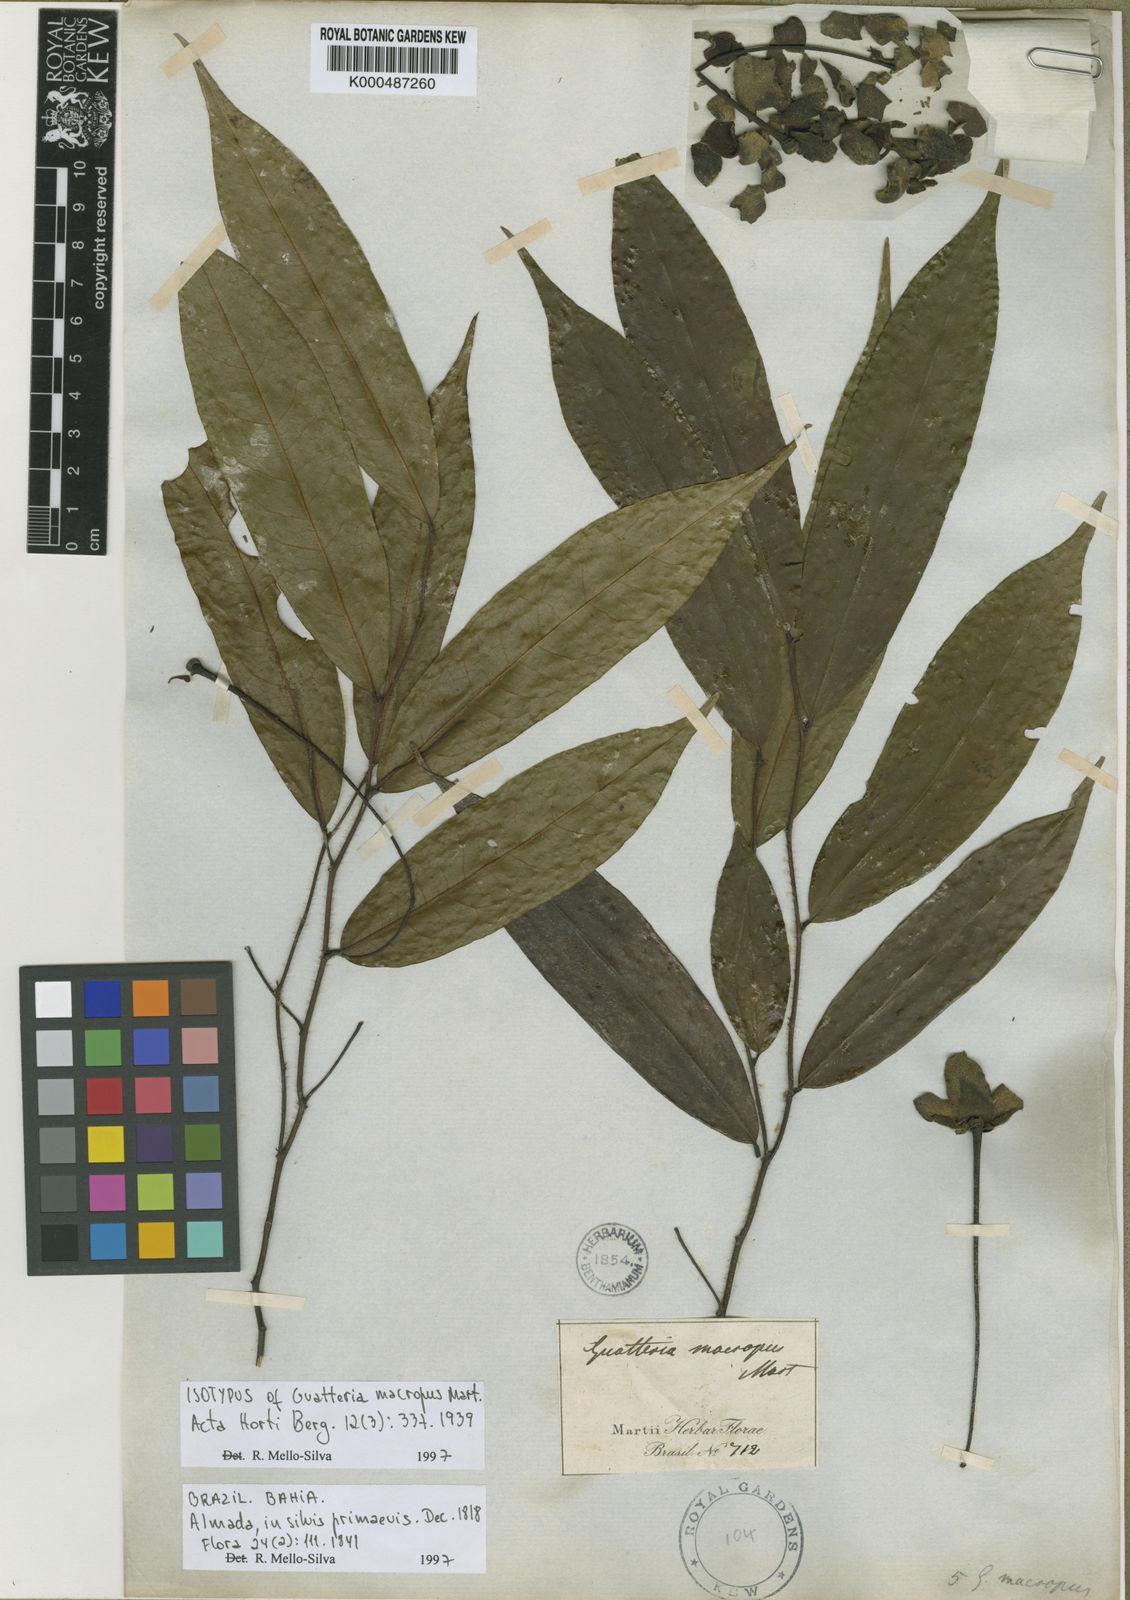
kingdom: Plantae
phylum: Tracheophyta
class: Magnoliopsida
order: Magnoliales
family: Annonaceae
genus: Guatteria
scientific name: Guatteria macropus
